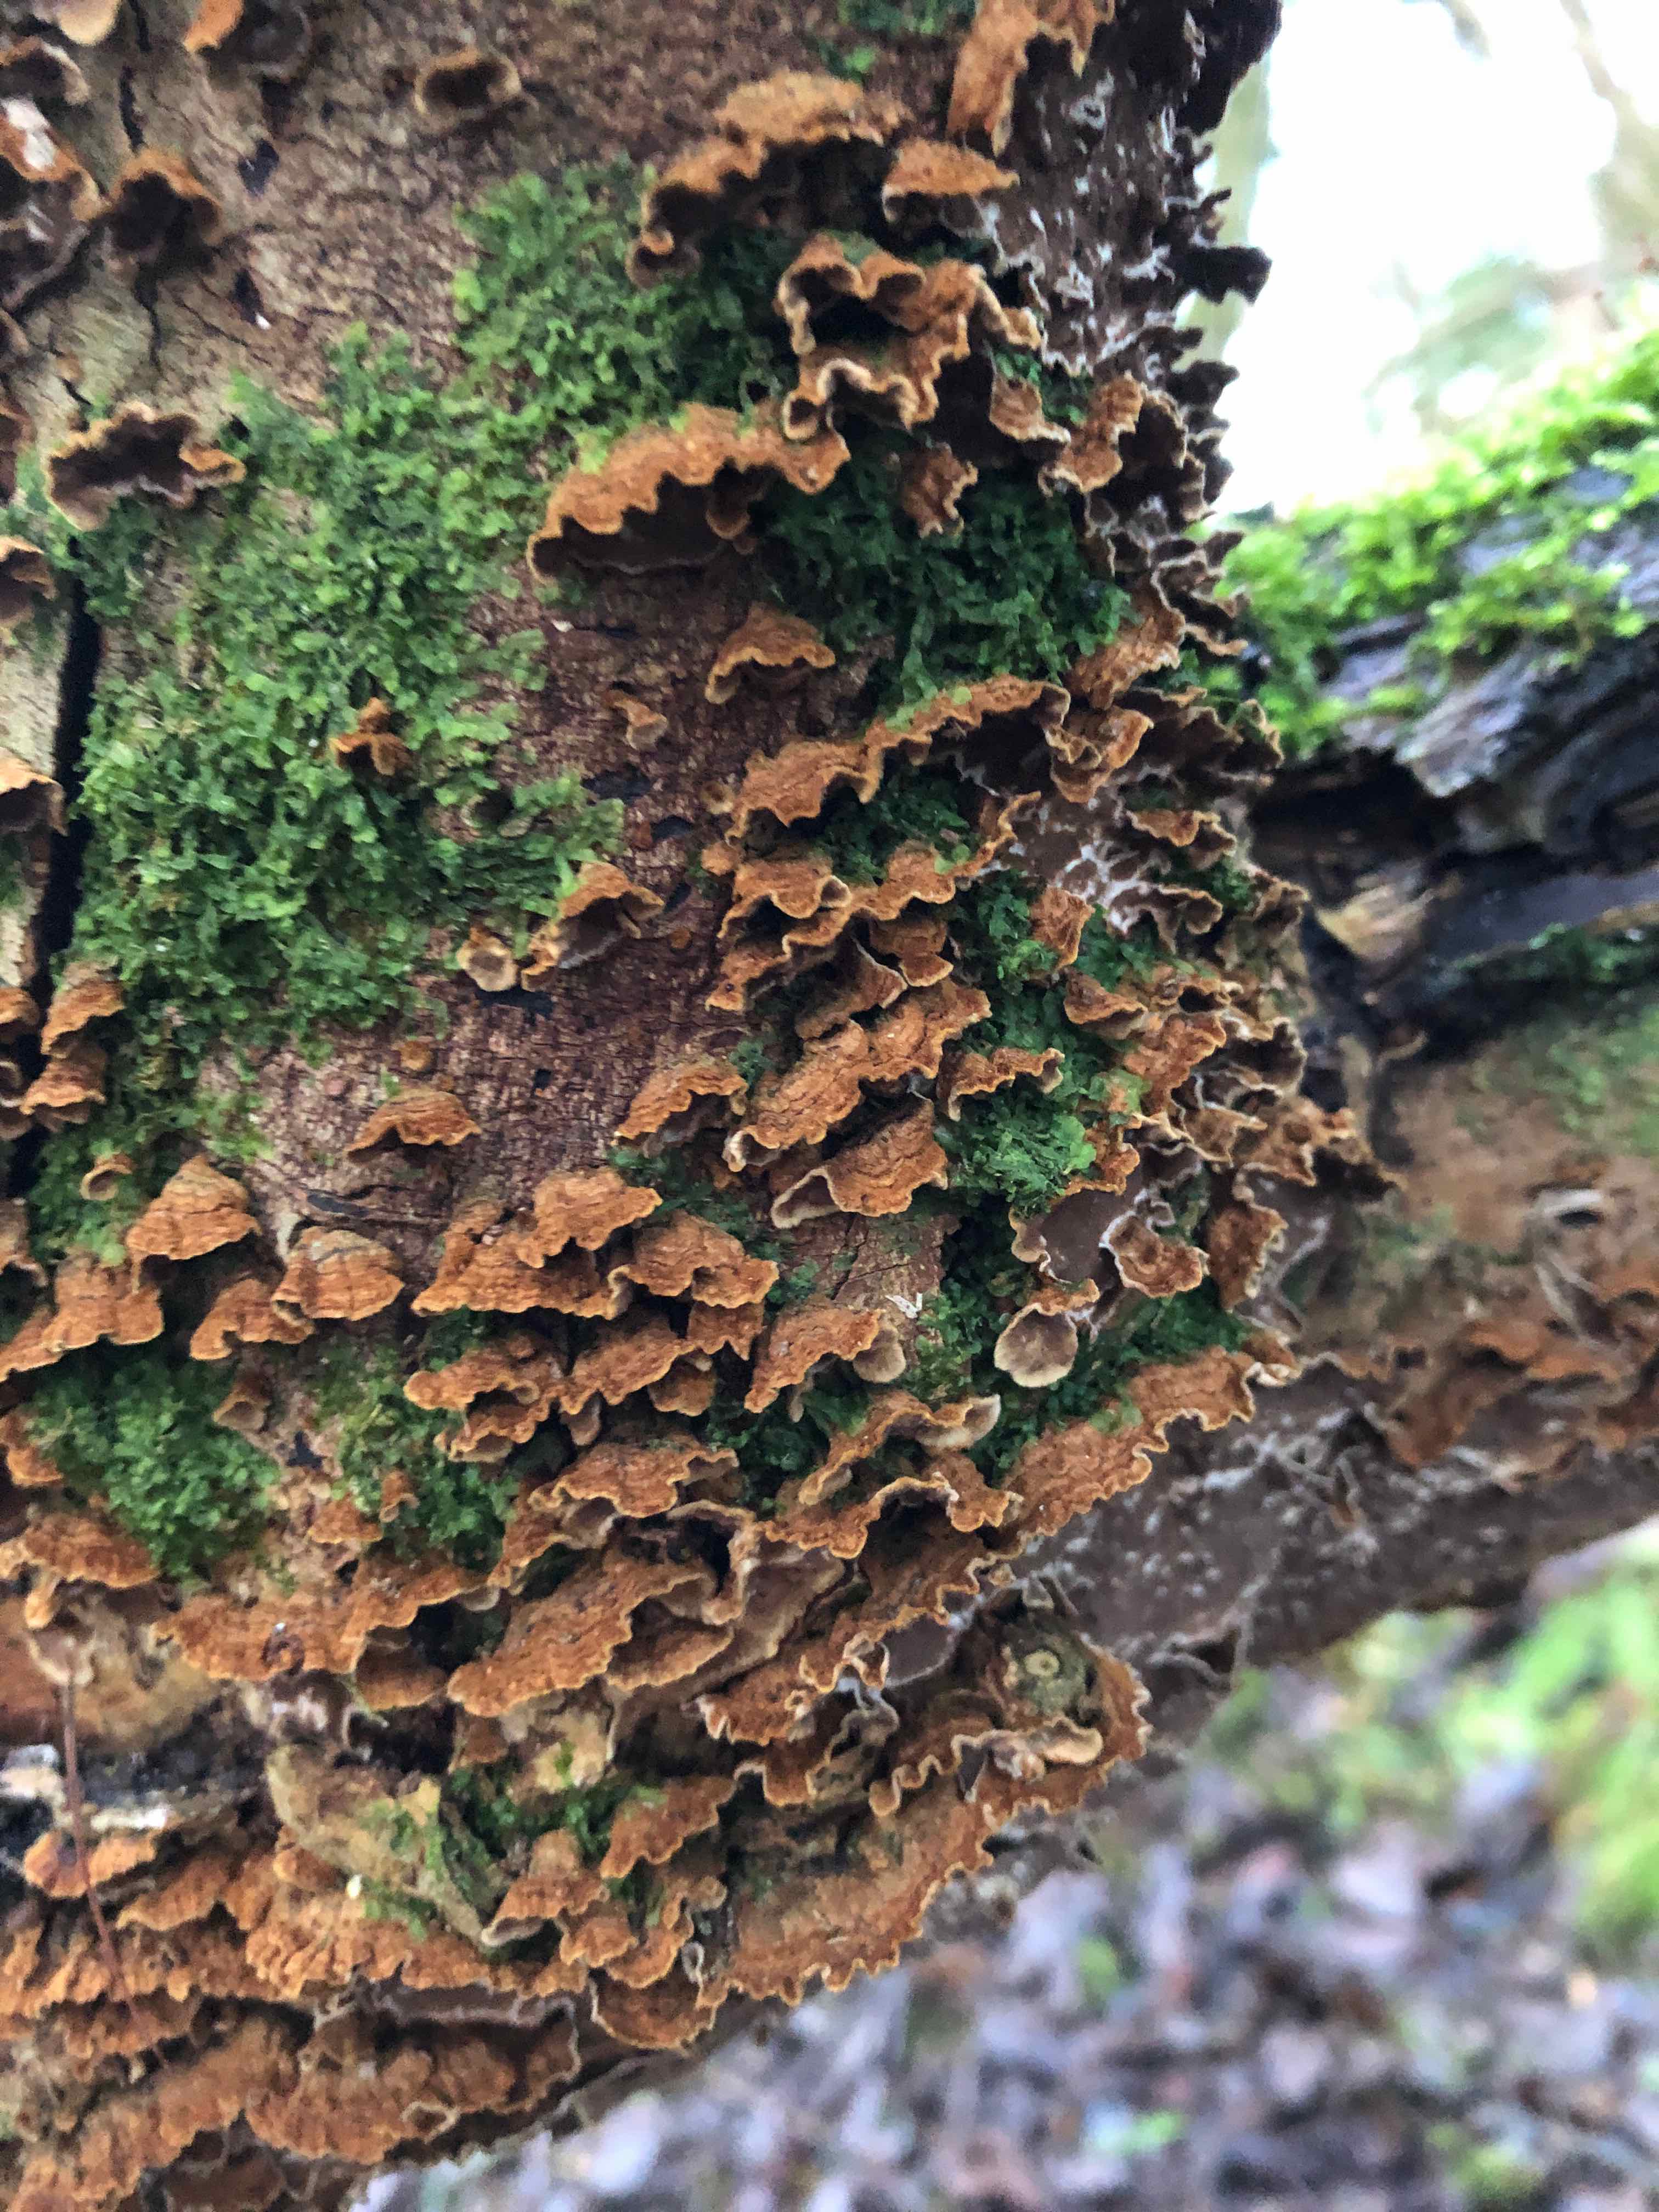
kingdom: Fungi
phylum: Basidiomycota
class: Agaricomycetes
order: Hymenochaetales
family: Hymenochaetaceae
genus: Hydnoporia
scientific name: Hydnoporia tabacina
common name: tobaksbrun ruslædersvamp
